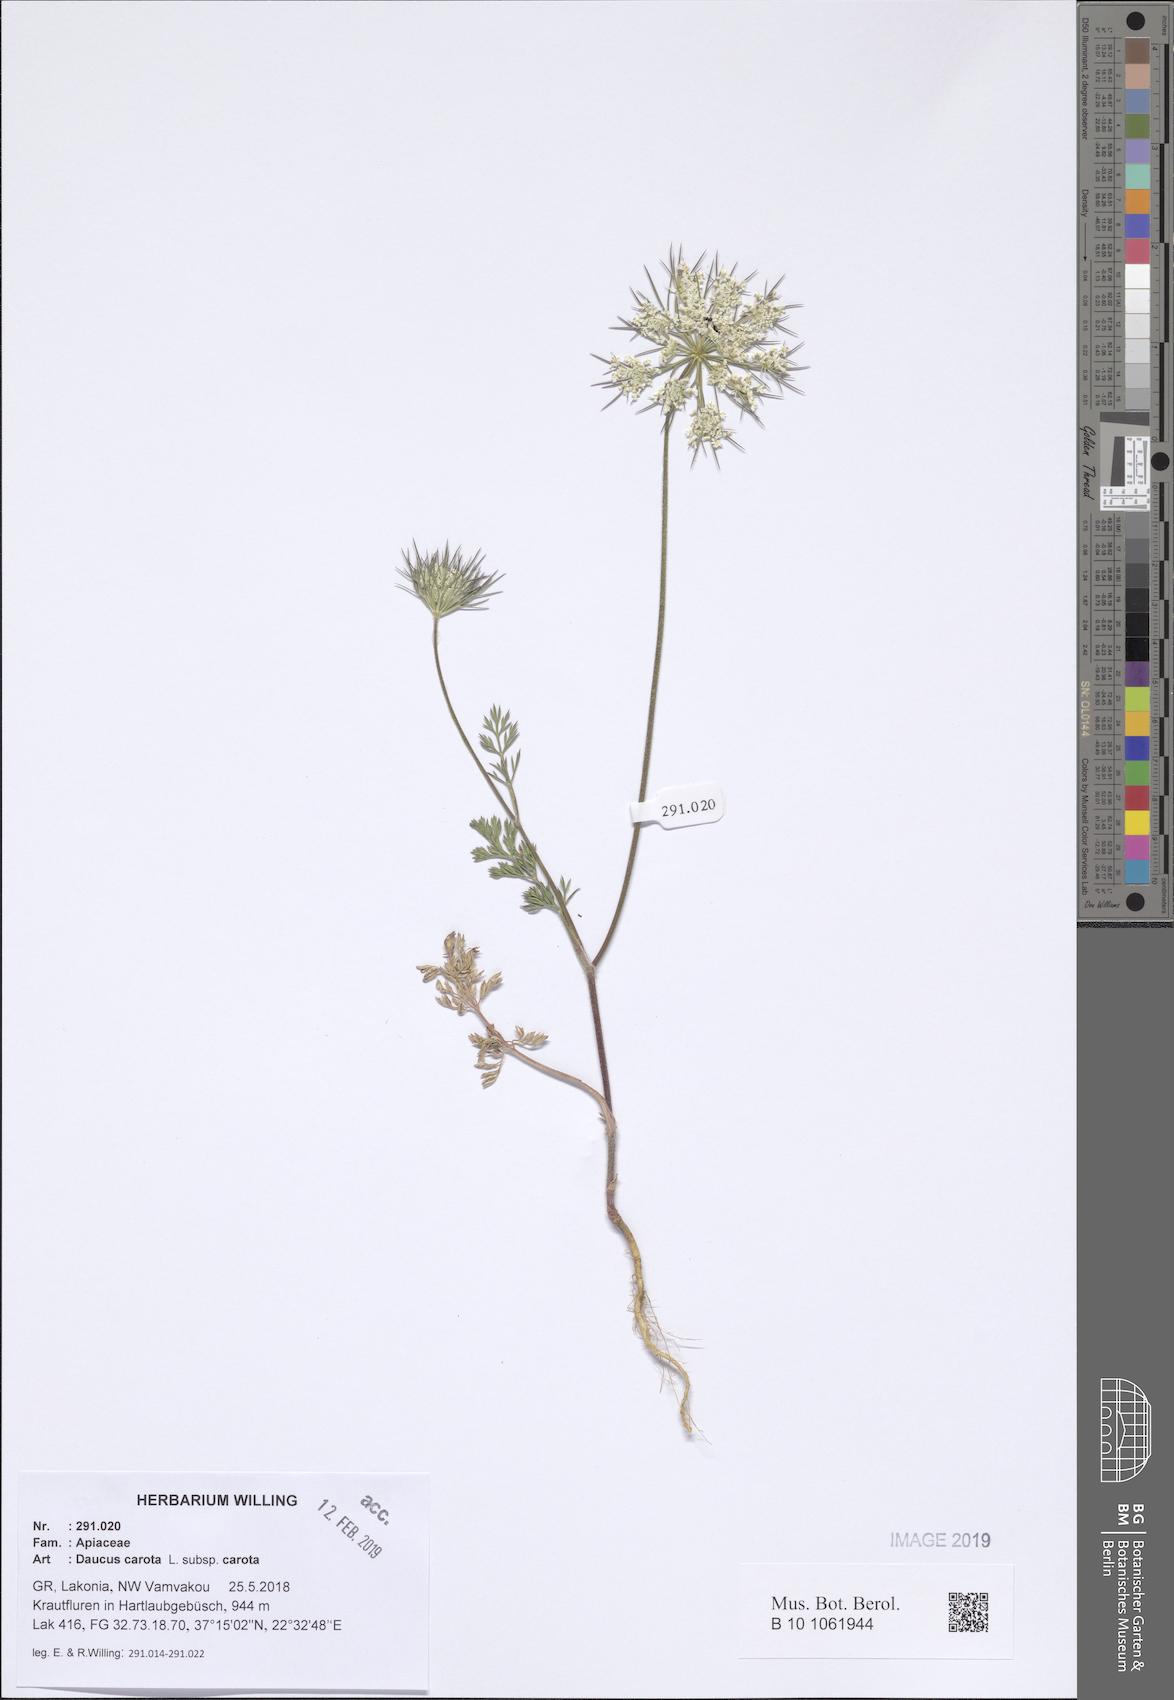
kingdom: Plantae
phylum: Tracheophyta
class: Magnoliopsida
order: Apiales
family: Apiaceae
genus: Daucus
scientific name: Daucus carota
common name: Wild carrot
